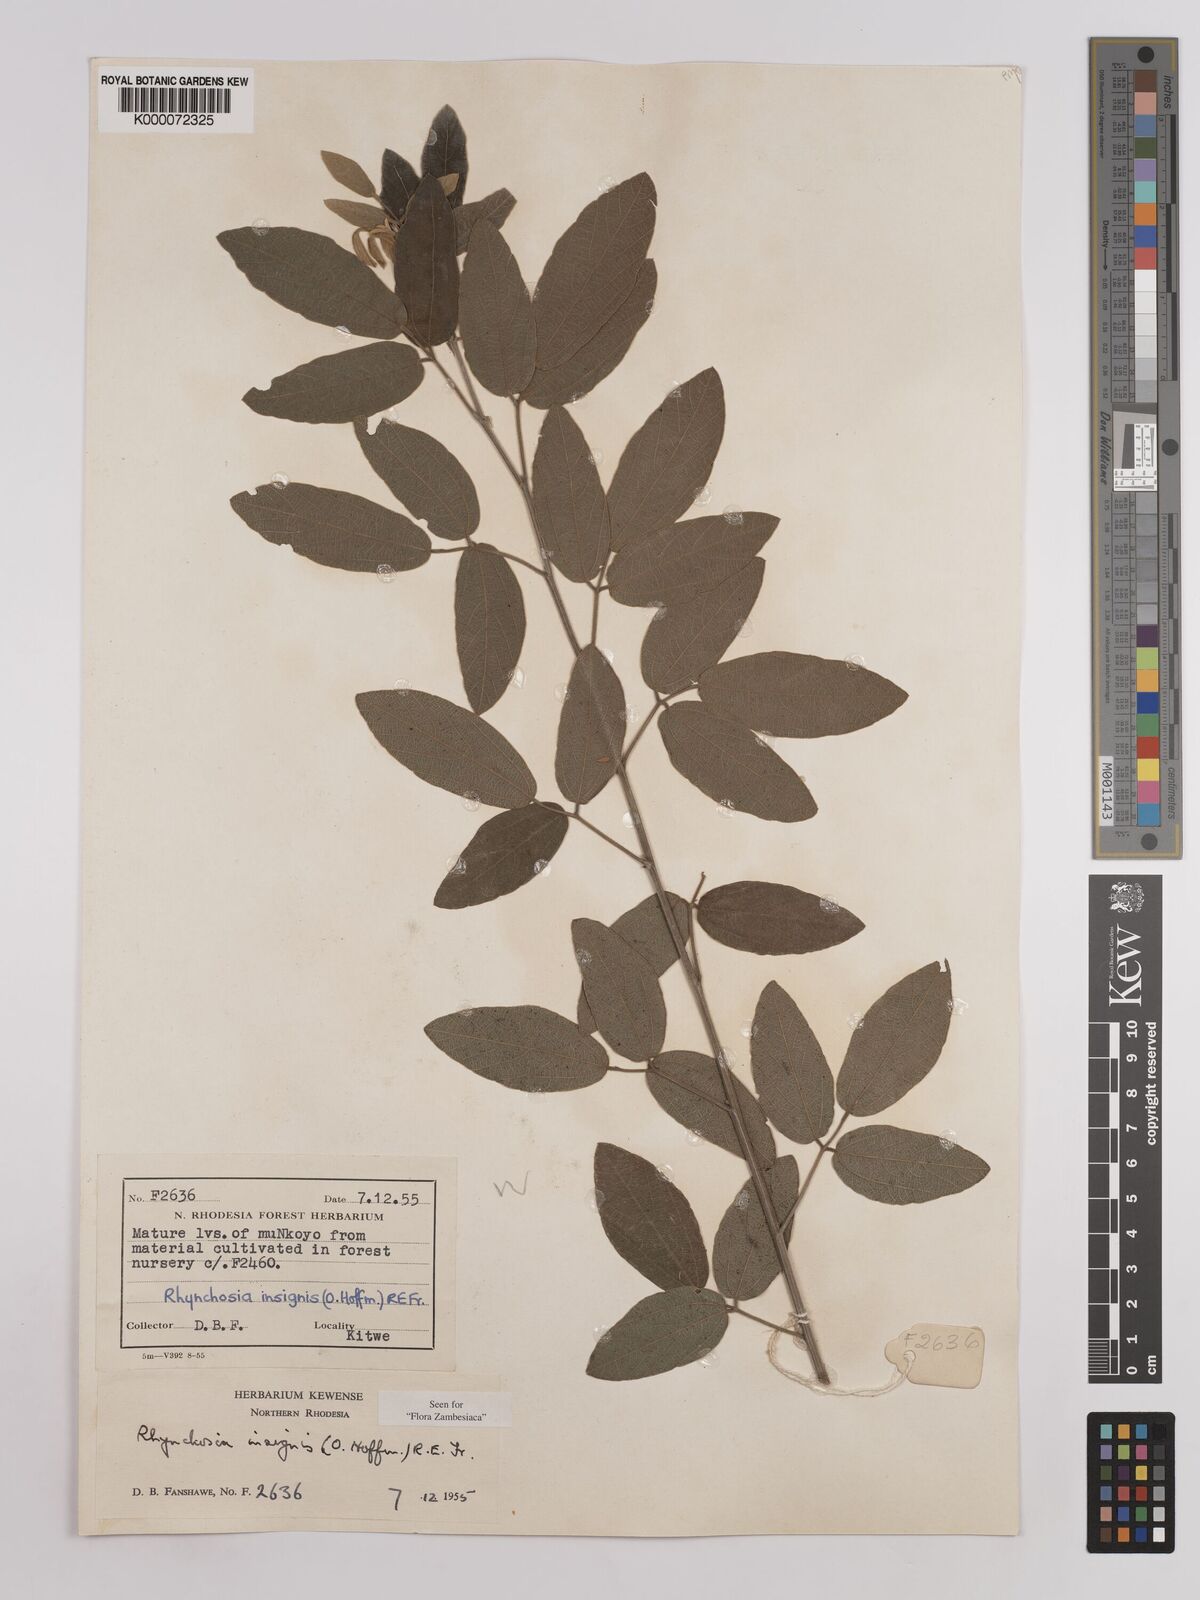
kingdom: Plantae
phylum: Tracheophyta
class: Magnoliopsida
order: Fabales
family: Fabaceae
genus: Rhynchosia
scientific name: Rhynchosia insignis
